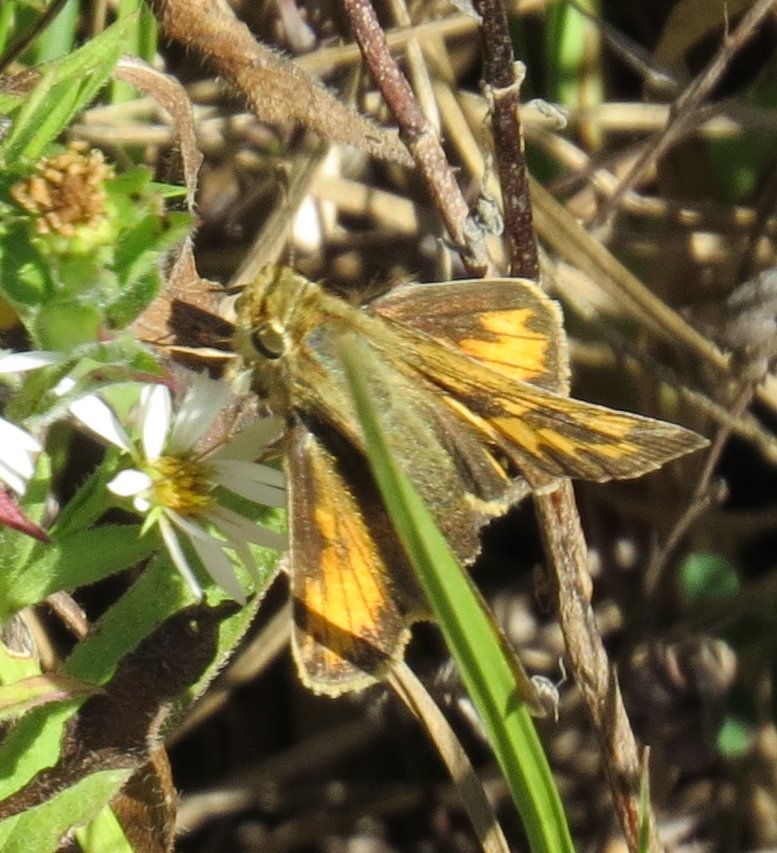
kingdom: Animalia
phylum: Arthropoda
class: Insecta
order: Lepidoptera
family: Hesperiidae
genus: Hylephila
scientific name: Hylephila phyleus
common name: Fiery Skipper
